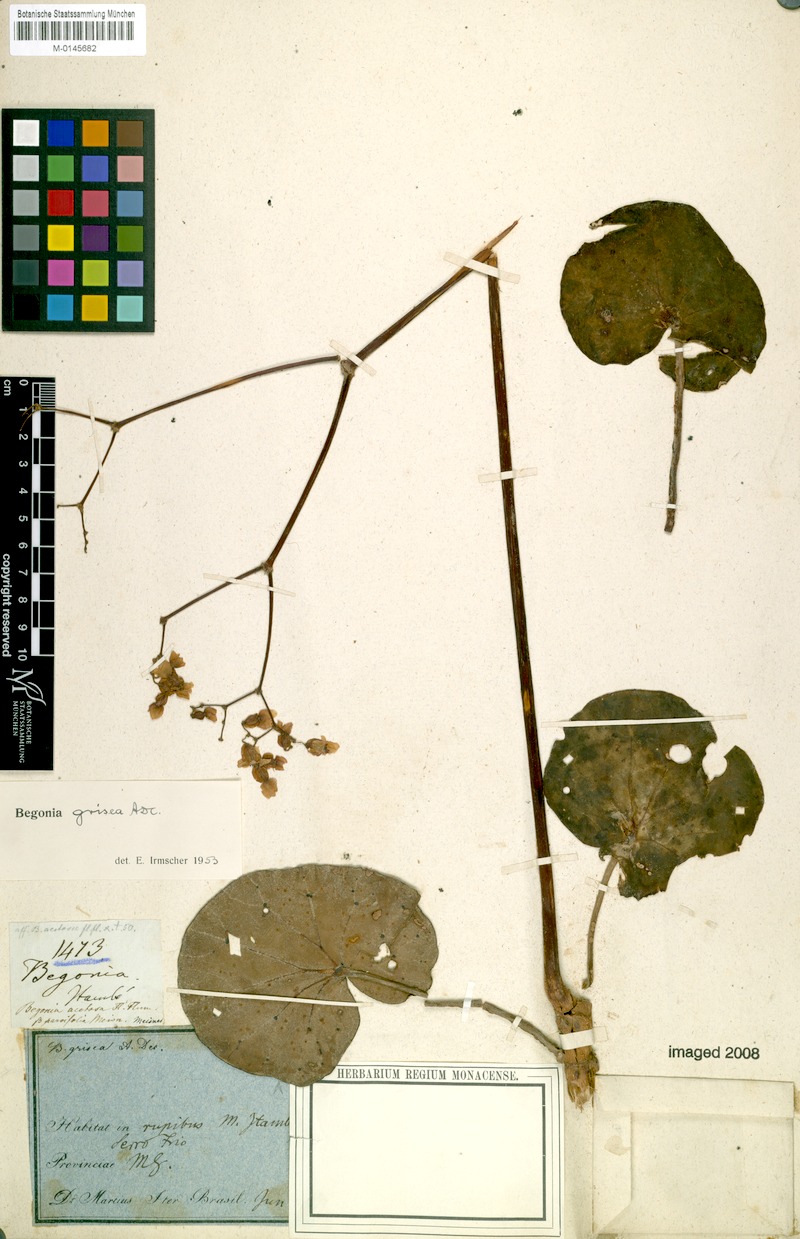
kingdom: Plantae
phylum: Tracheophyta
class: Magnoliopsida
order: Cucurbitales
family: Begoniaceae
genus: Begonia
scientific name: Begonia grisea
